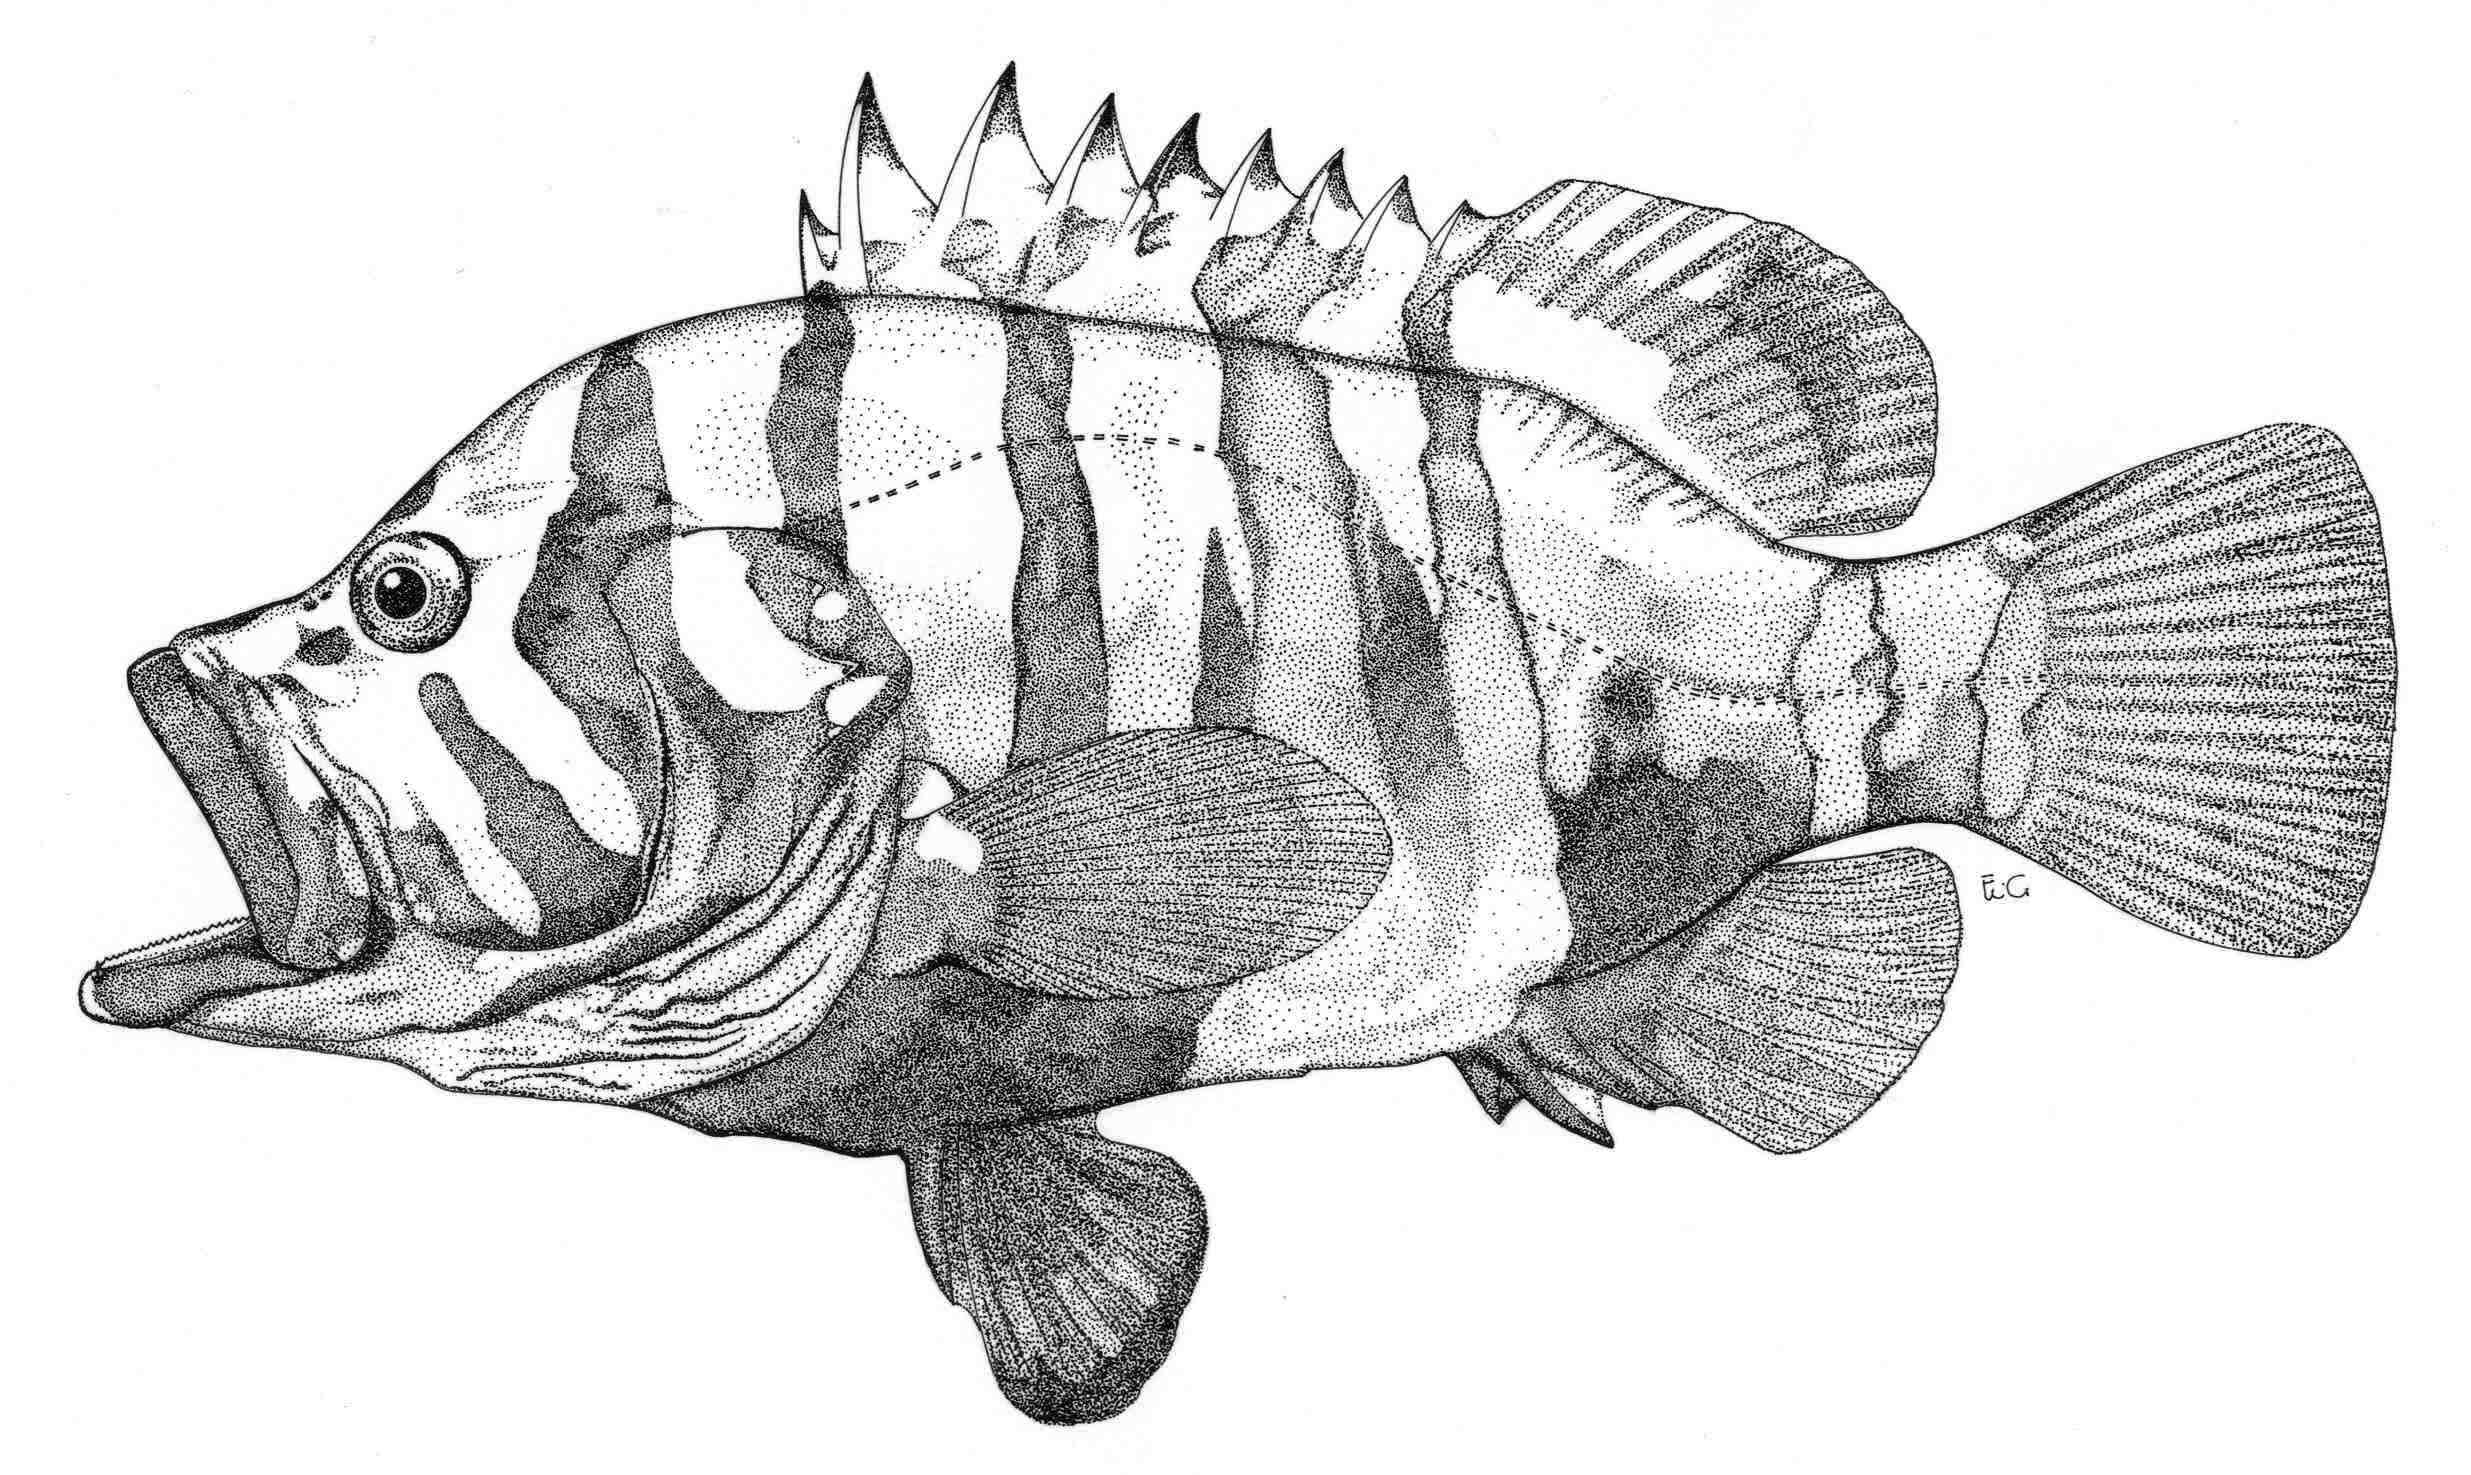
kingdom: Animalia
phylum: Chordata
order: Perciformes
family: Serranidae
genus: Cephalopholis
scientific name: Cephalopholis igarashiensis
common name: Garish hind
